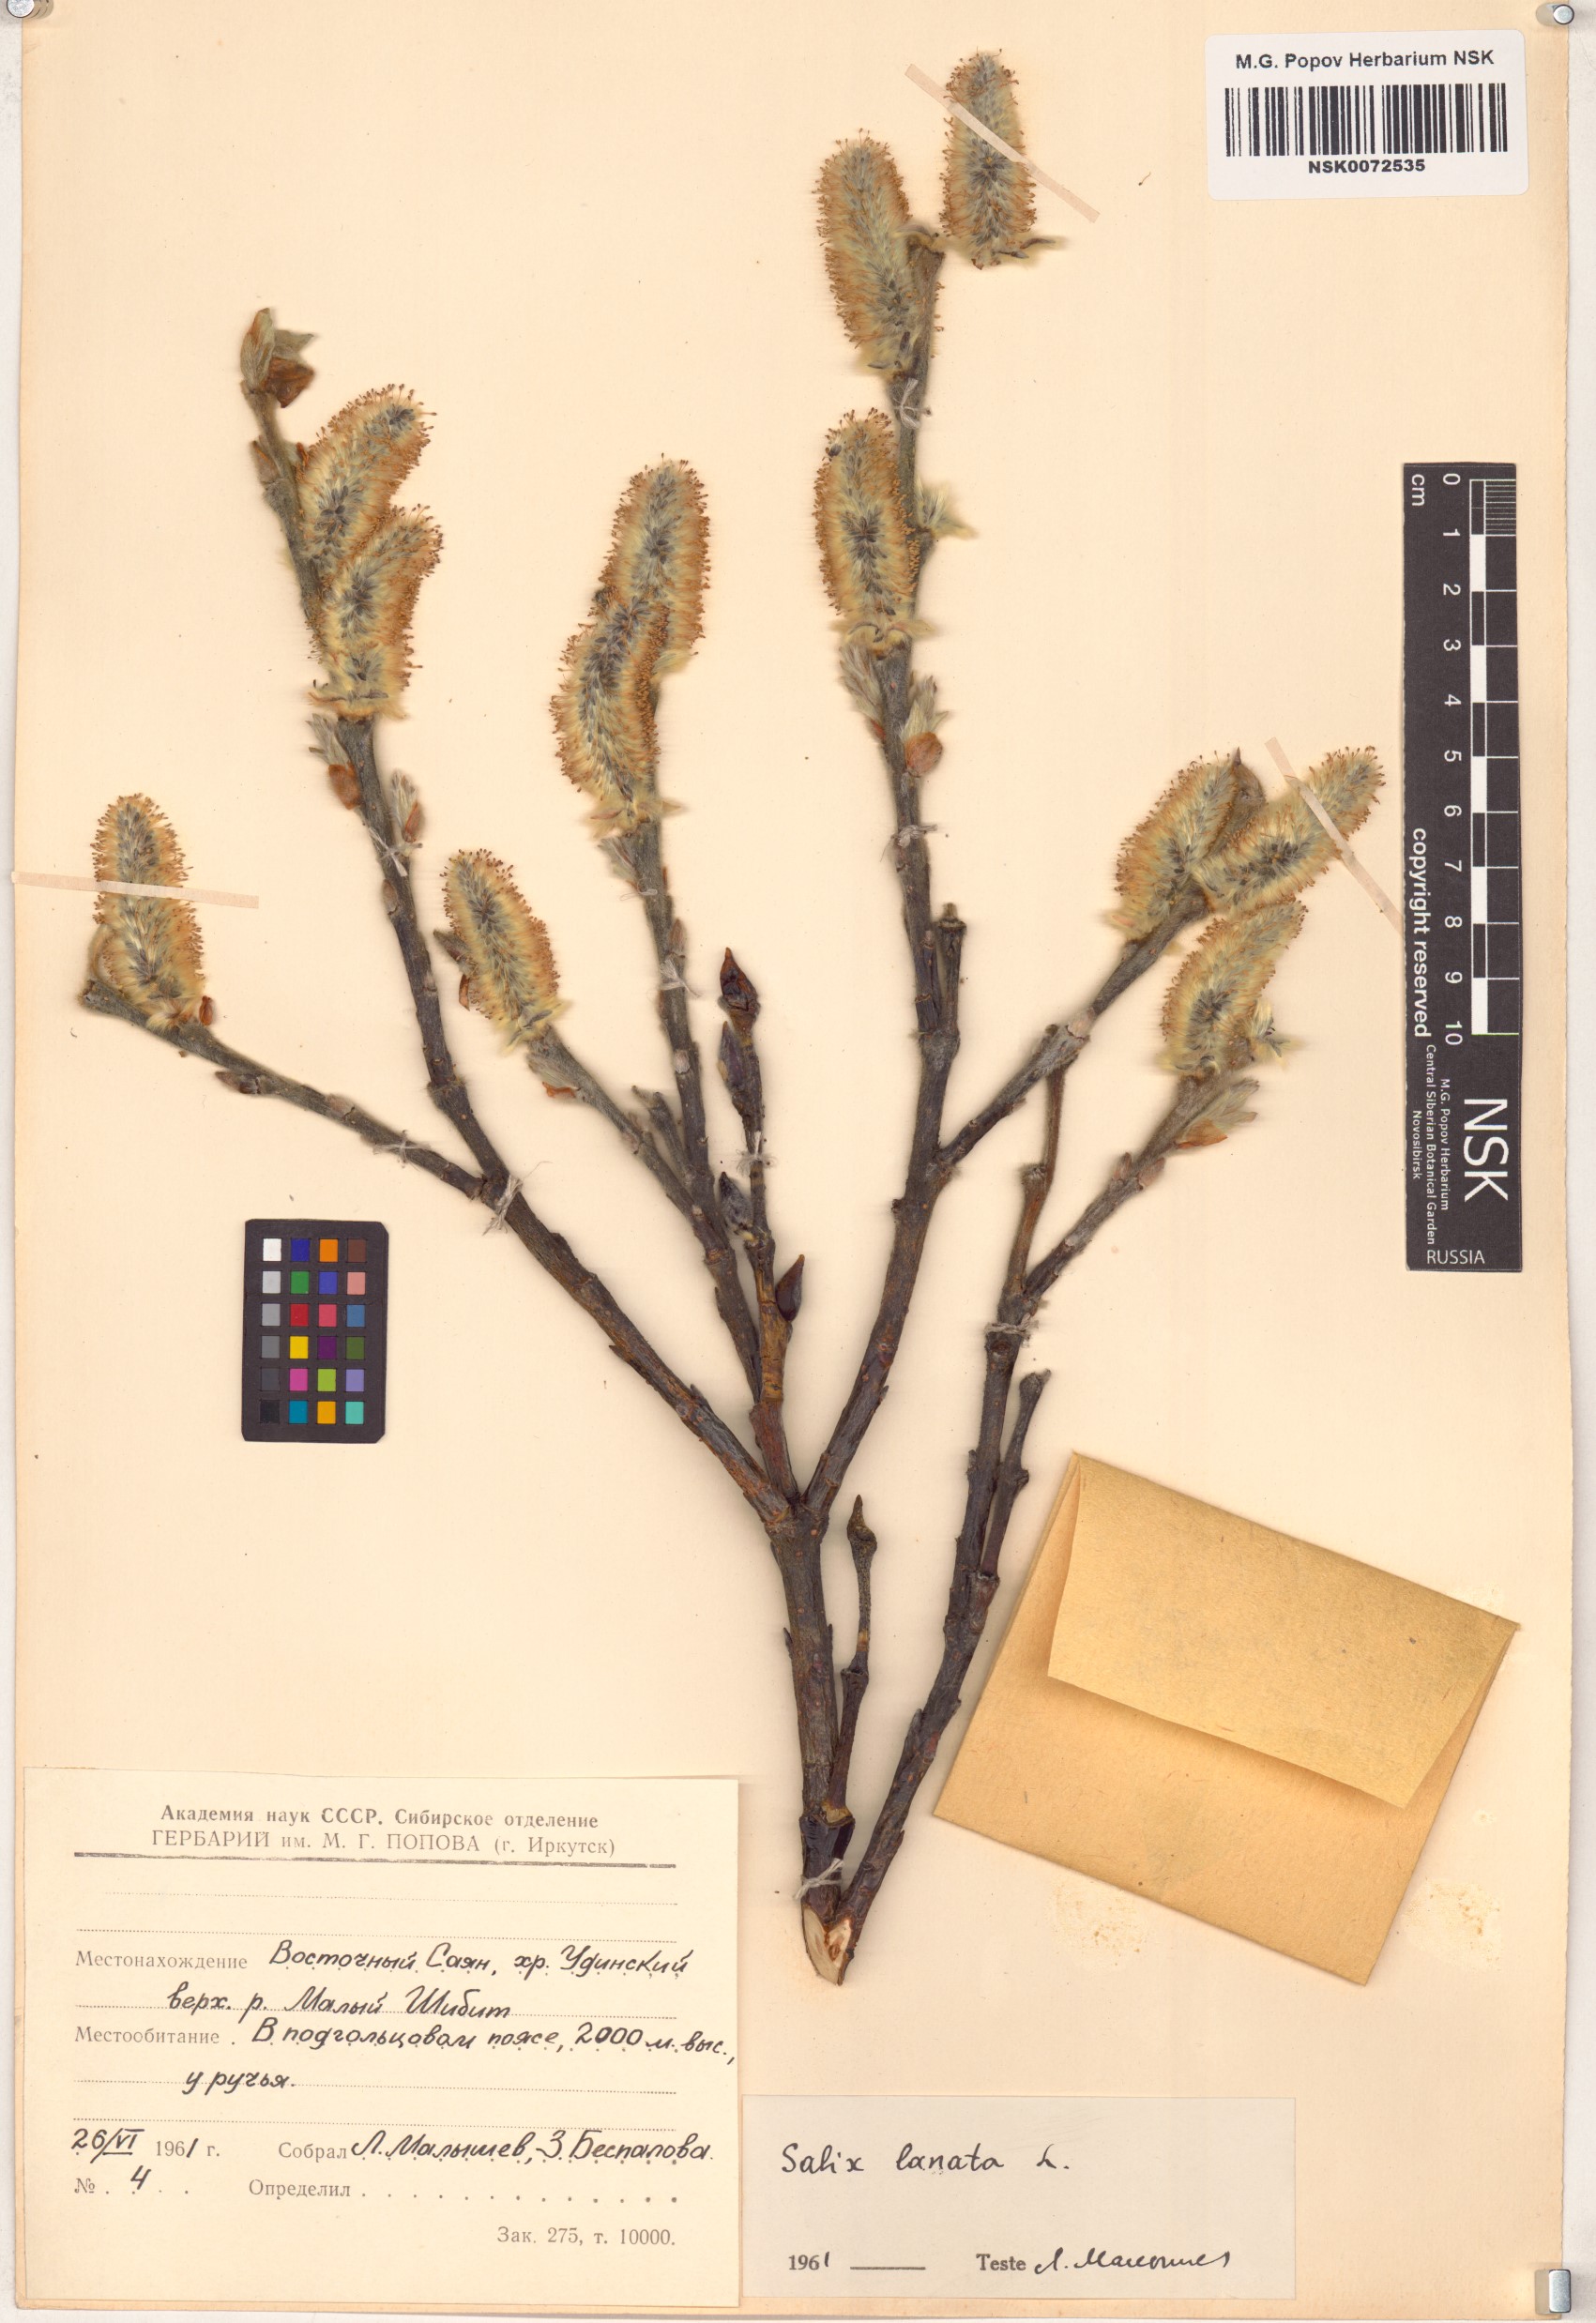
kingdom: Plantae
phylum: Tracheophyta
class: Magnoliopsida
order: Malpighiales
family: Salicaceae
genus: Salix
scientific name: Salix lanata
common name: Woolly willow
